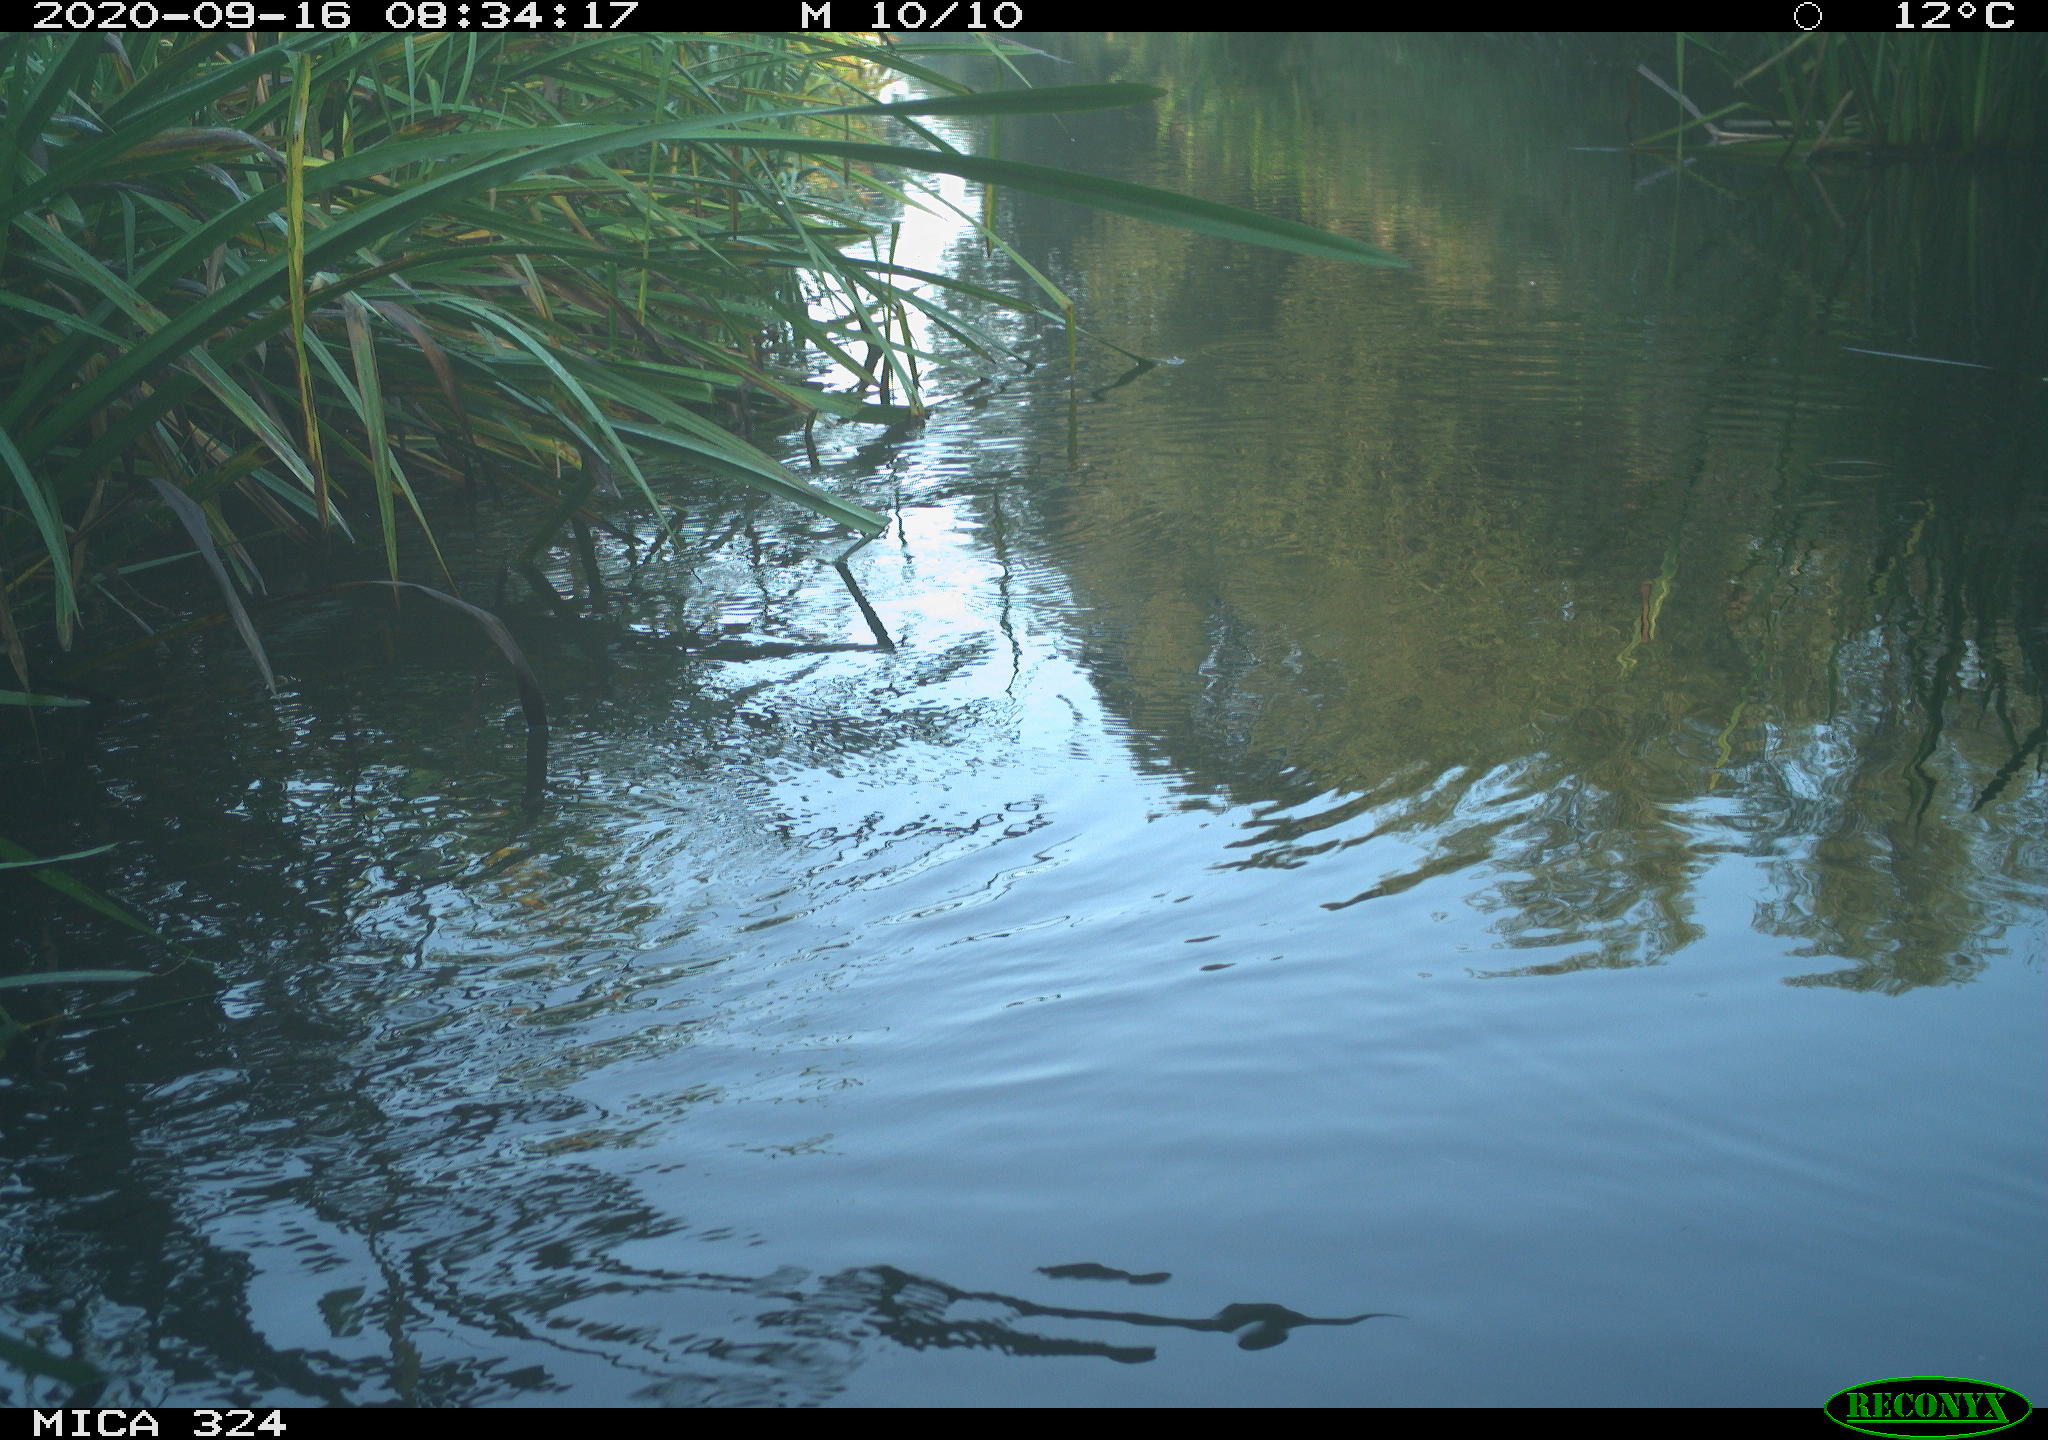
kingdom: Animalia
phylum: Chordata
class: Aves
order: Gruiformes
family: Rallidae
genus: Gallinula
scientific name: Gallinula chloropus
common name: Common moorhen
